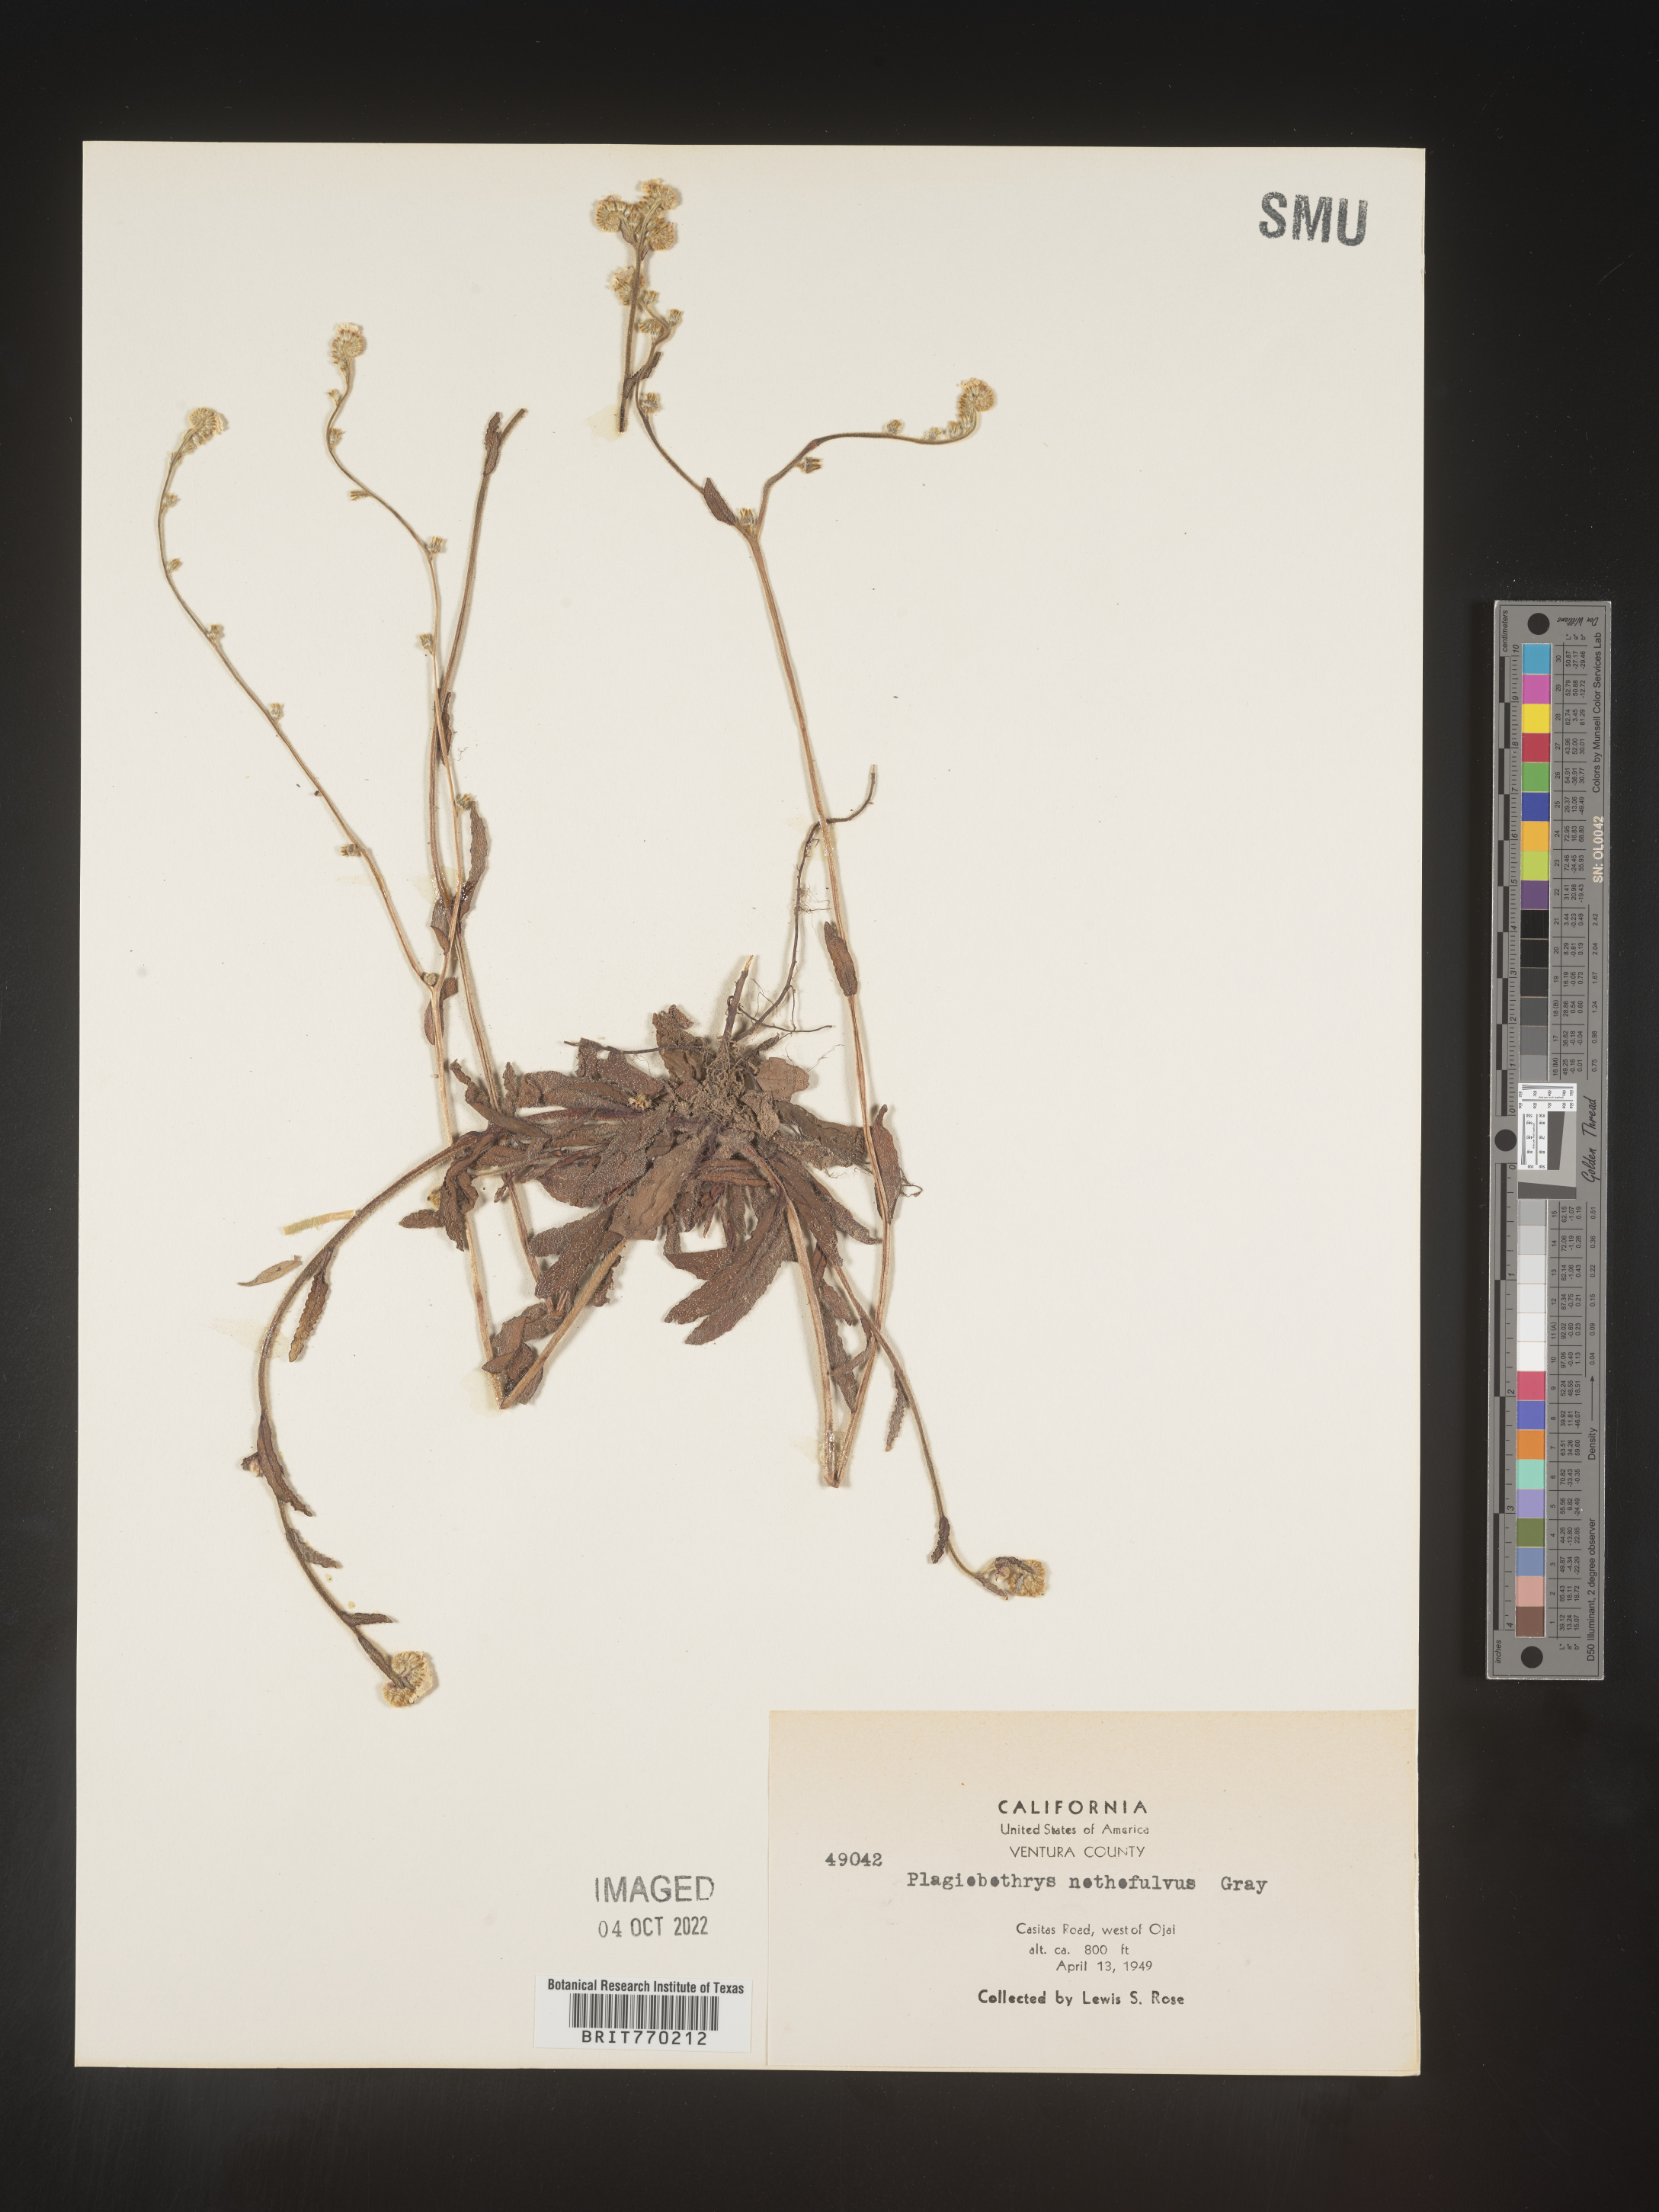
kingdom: Plantae
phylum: Tracheophyta
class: Magnoliopsida
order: Boraginales
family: Boraginaceae
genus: Plagiobothrys
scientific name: Plagiobothrys
